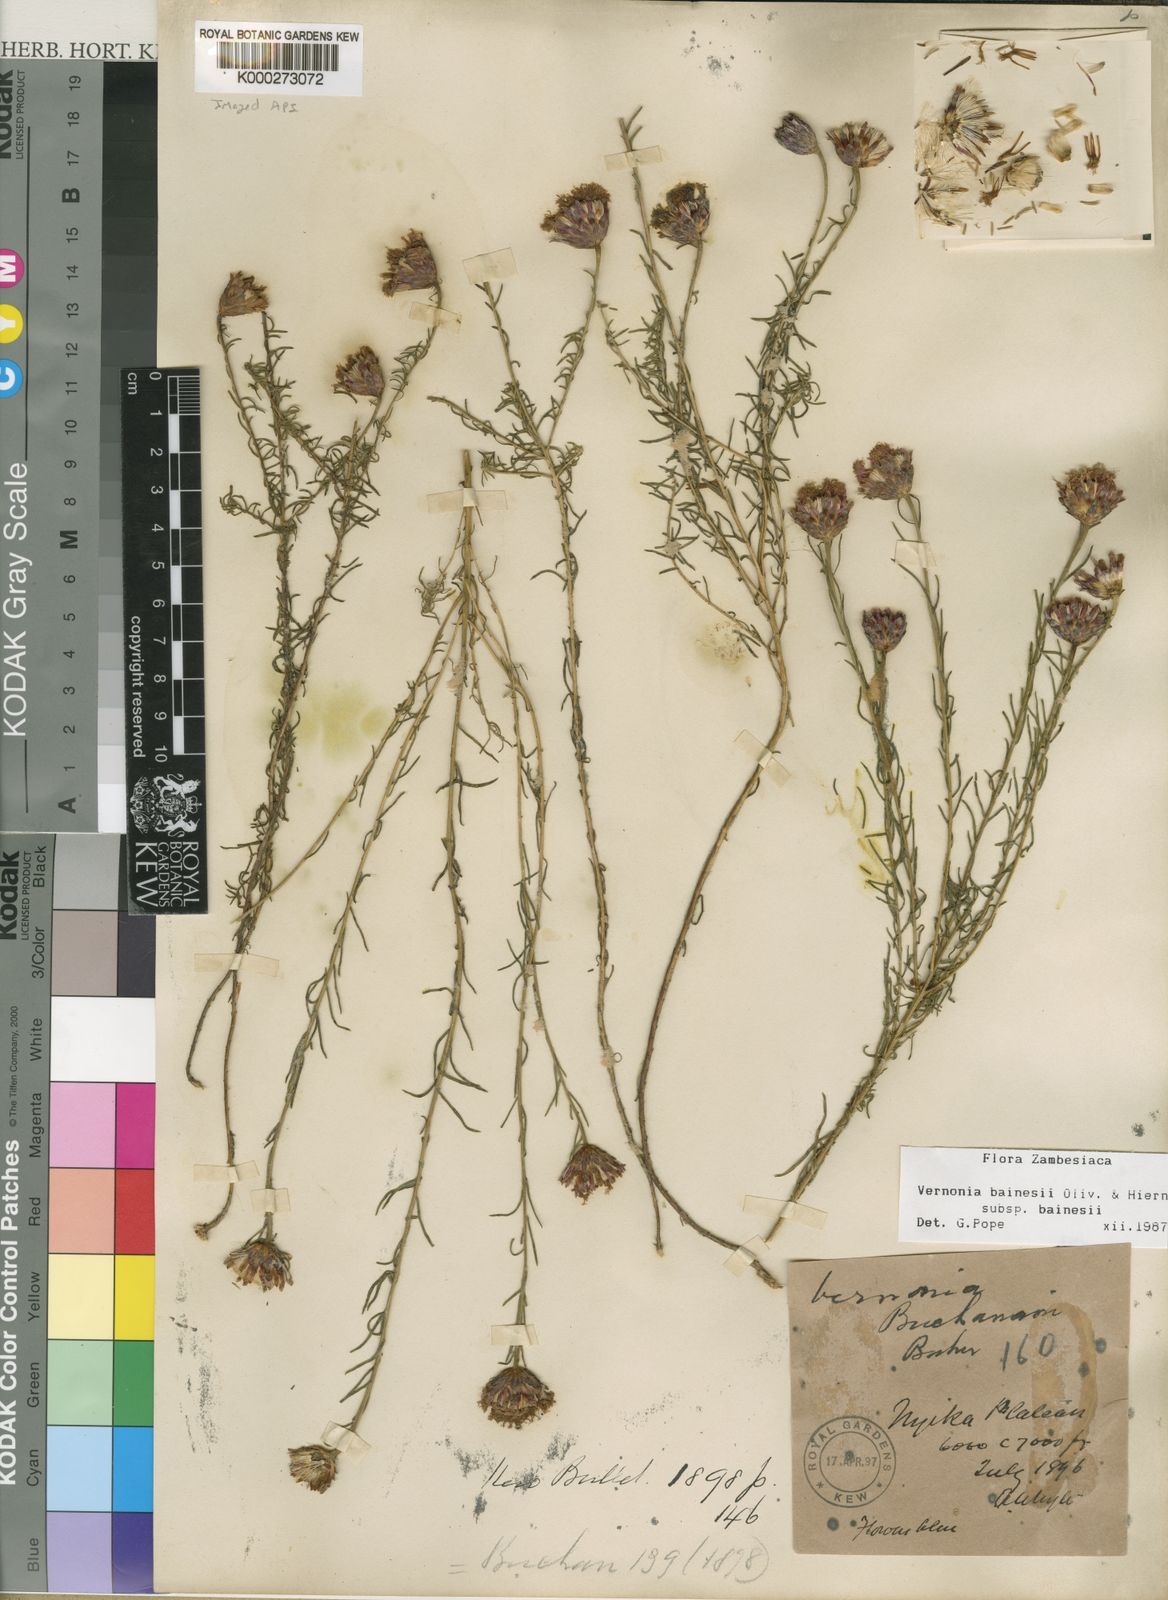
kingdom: Plantae
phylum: Tracheophyta
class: Magnoliopsida
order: Asterales
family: Asteraceae
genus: Crystallopollen
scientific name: Crystallopollen bainesii
